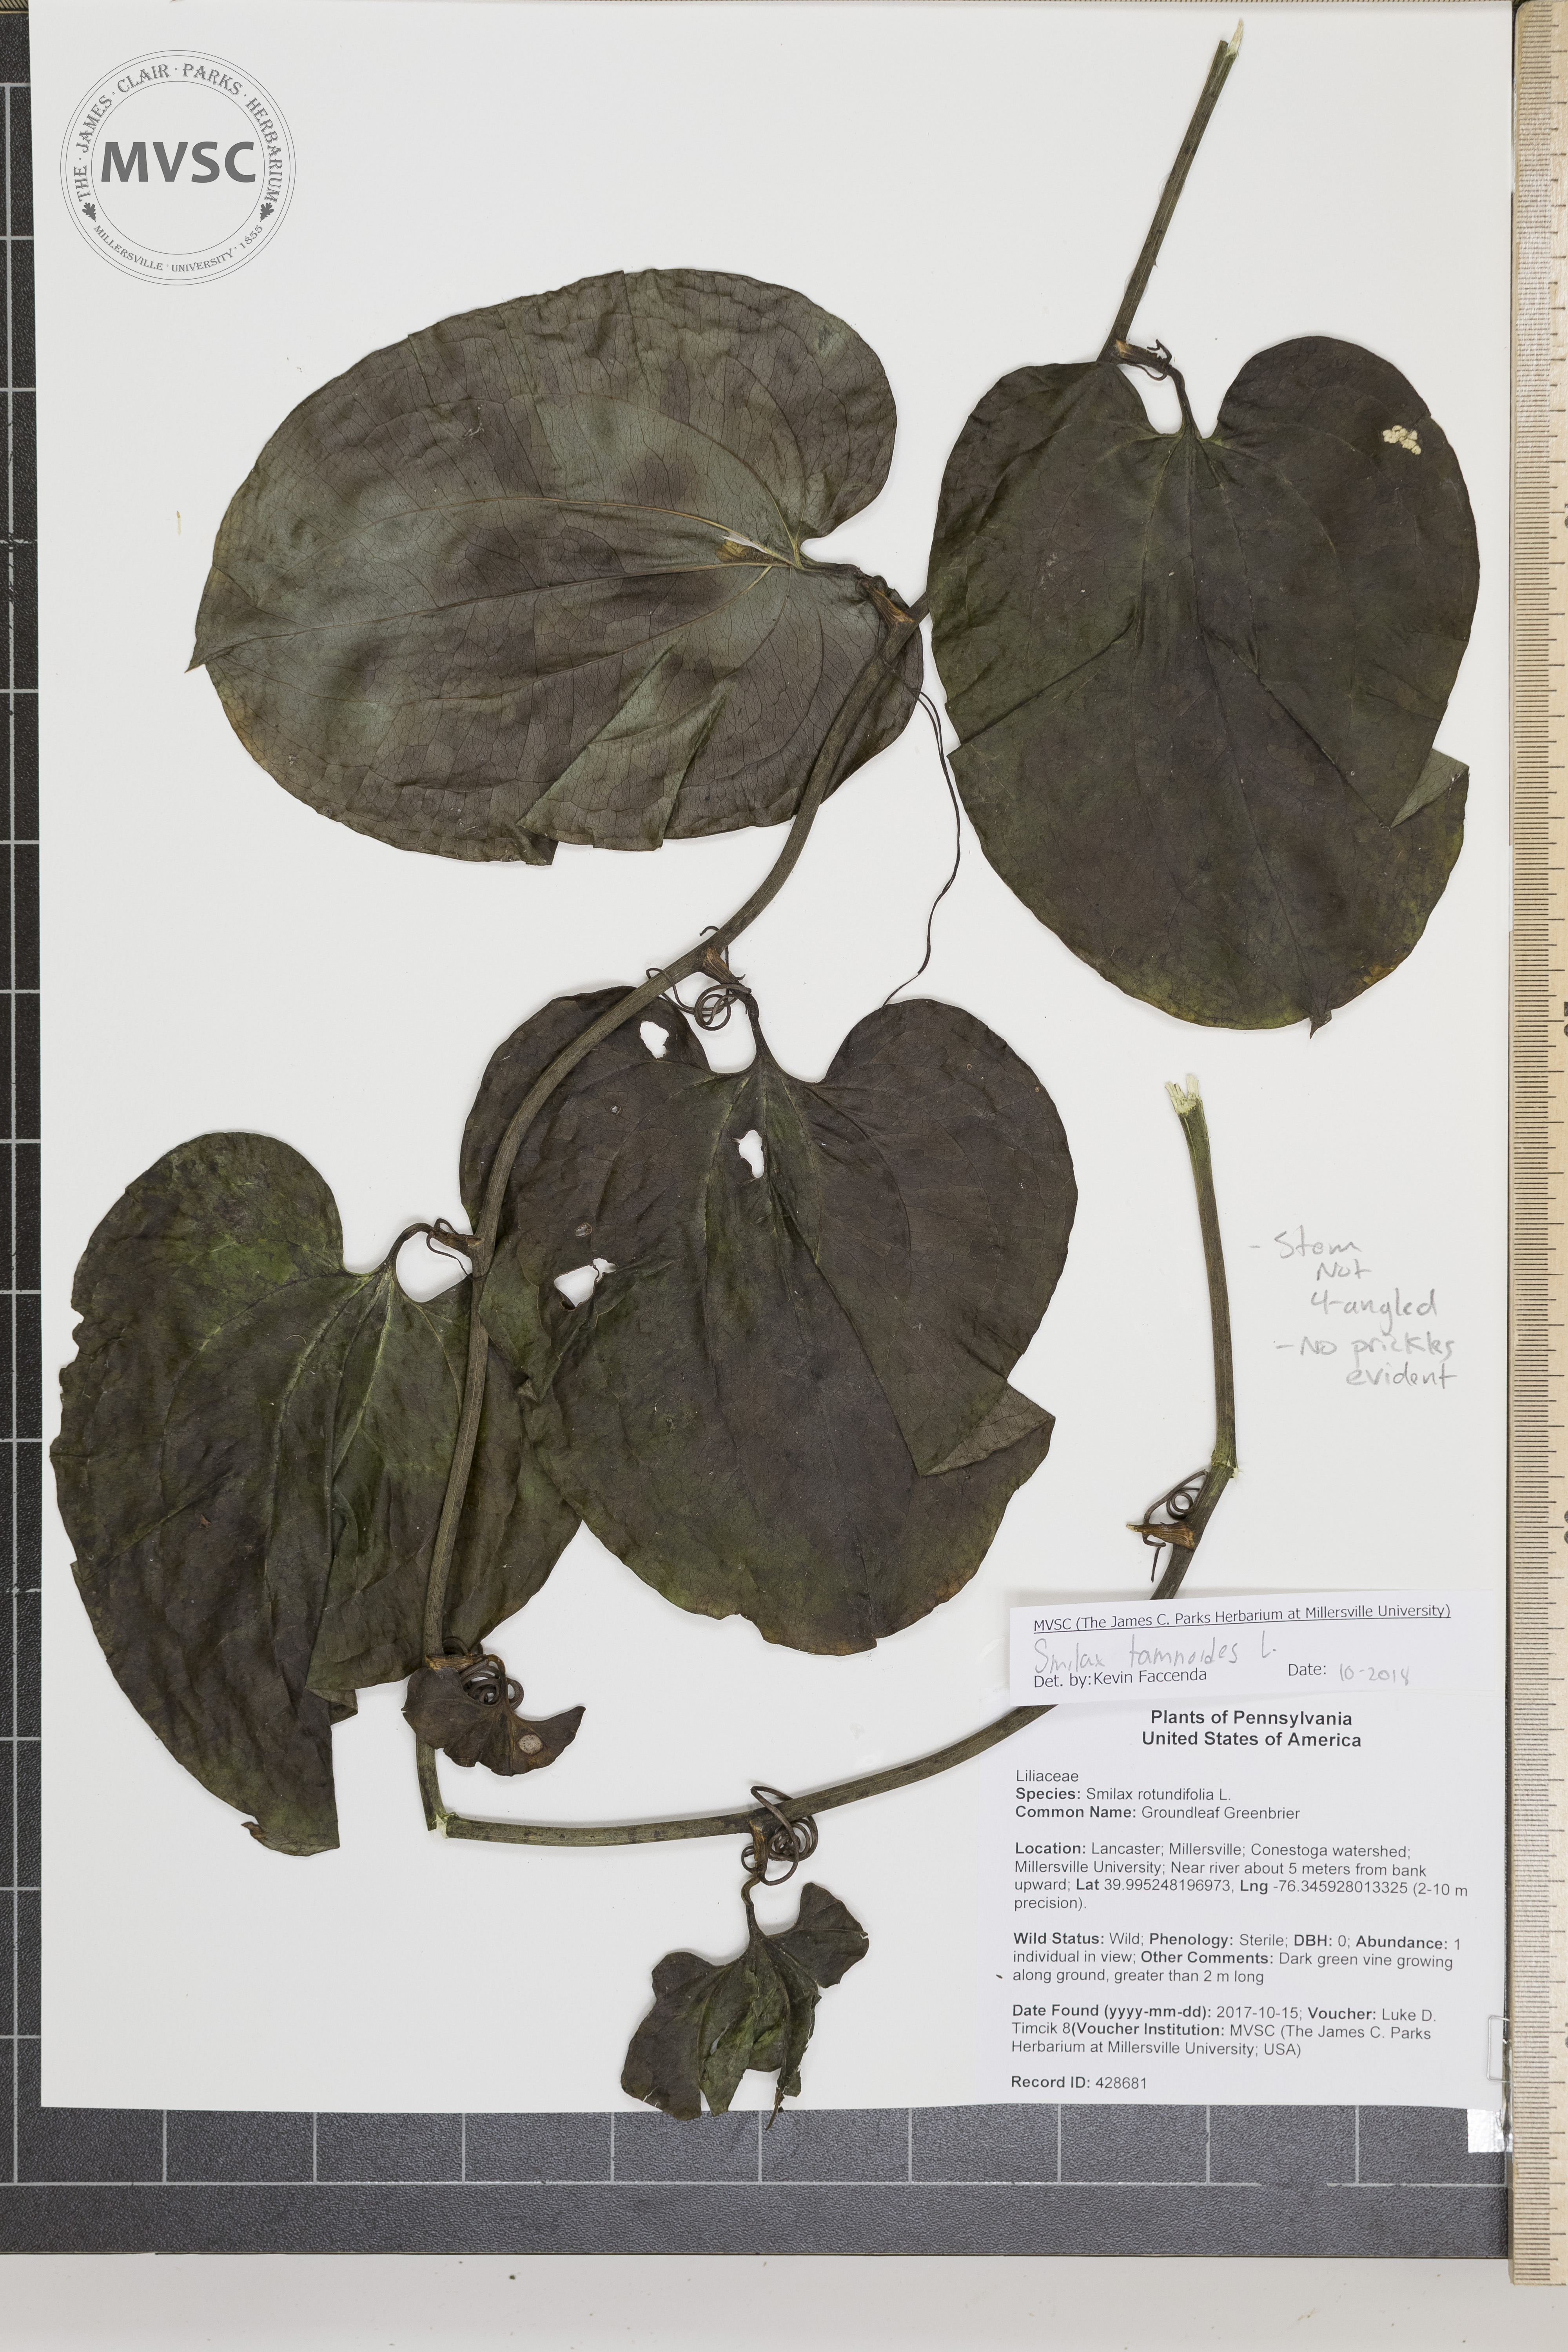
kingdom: Plantae
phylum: Tracheophyta
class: Liliopsida
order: Liliales
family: Smilacaceae
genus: Smilax
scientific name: Smilax tamnoides
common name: Hellfetter
